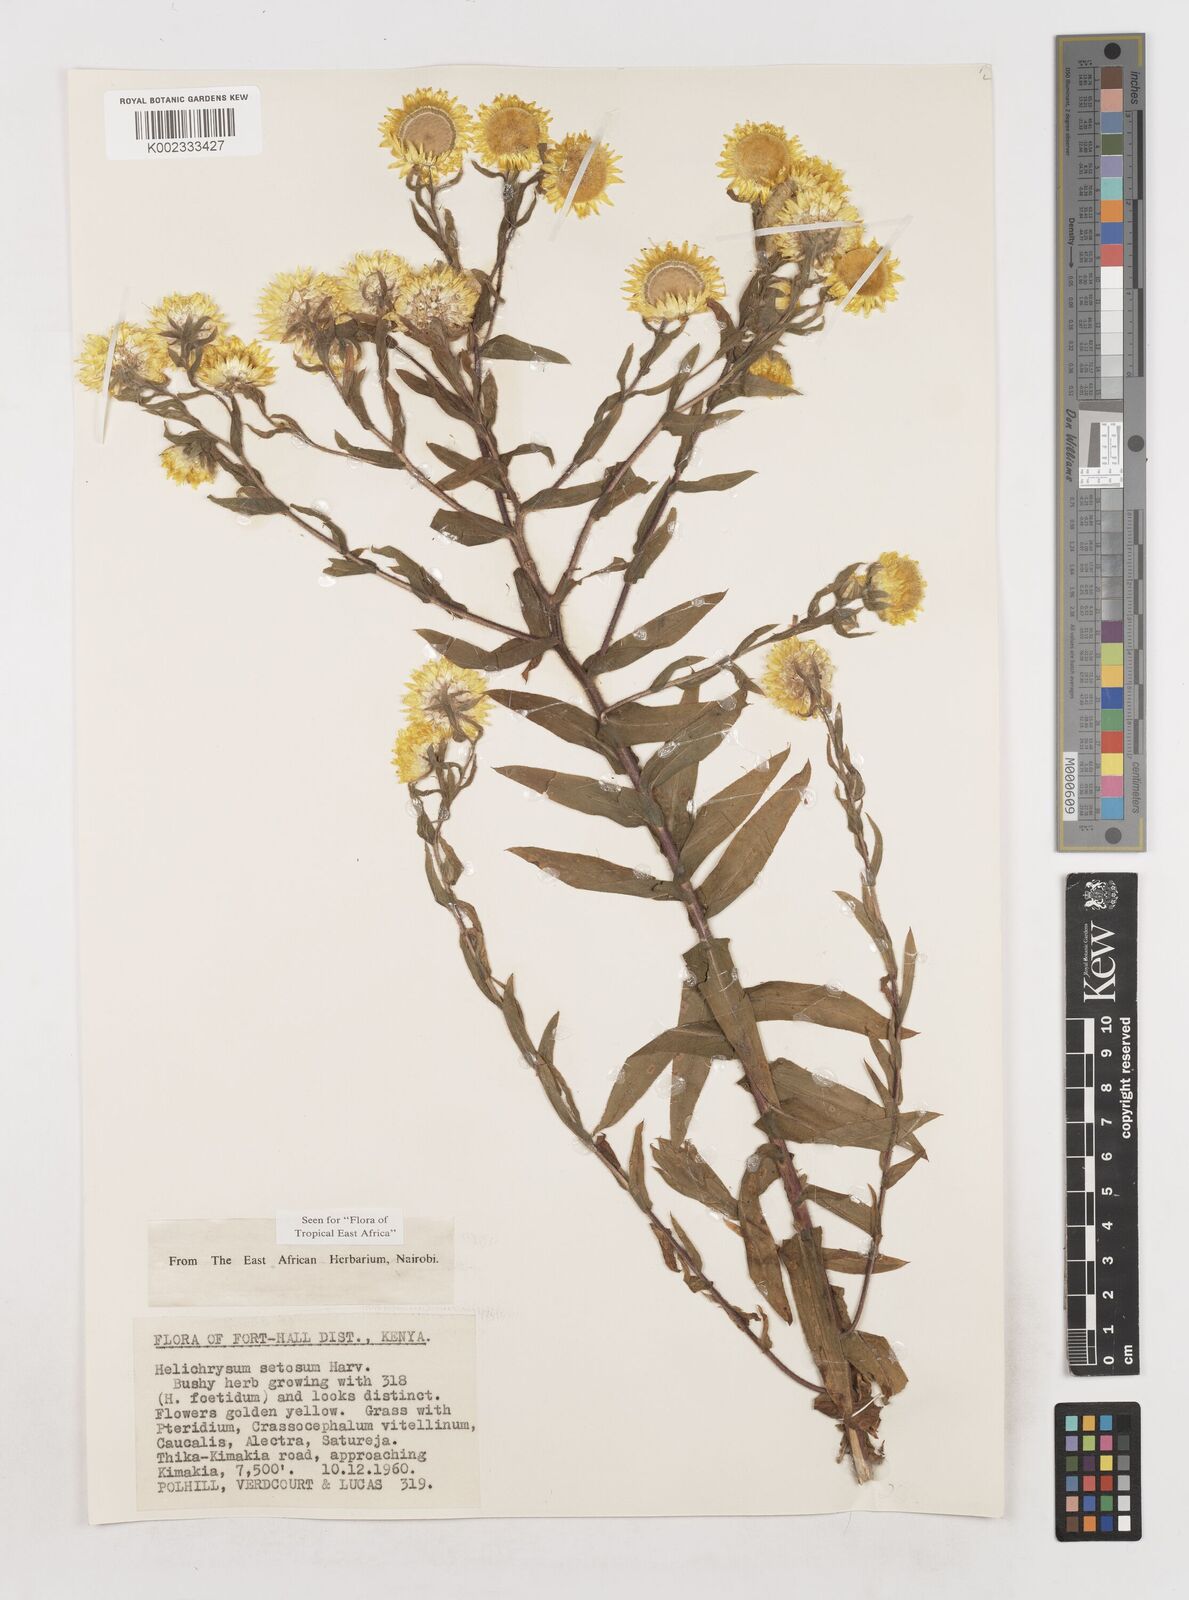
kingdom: Plantae
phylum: Tracheophyta
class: Magnoliopsida
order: Asterales
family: Asteraceae
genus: Helichrysum
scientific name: Helichrysum setosum
